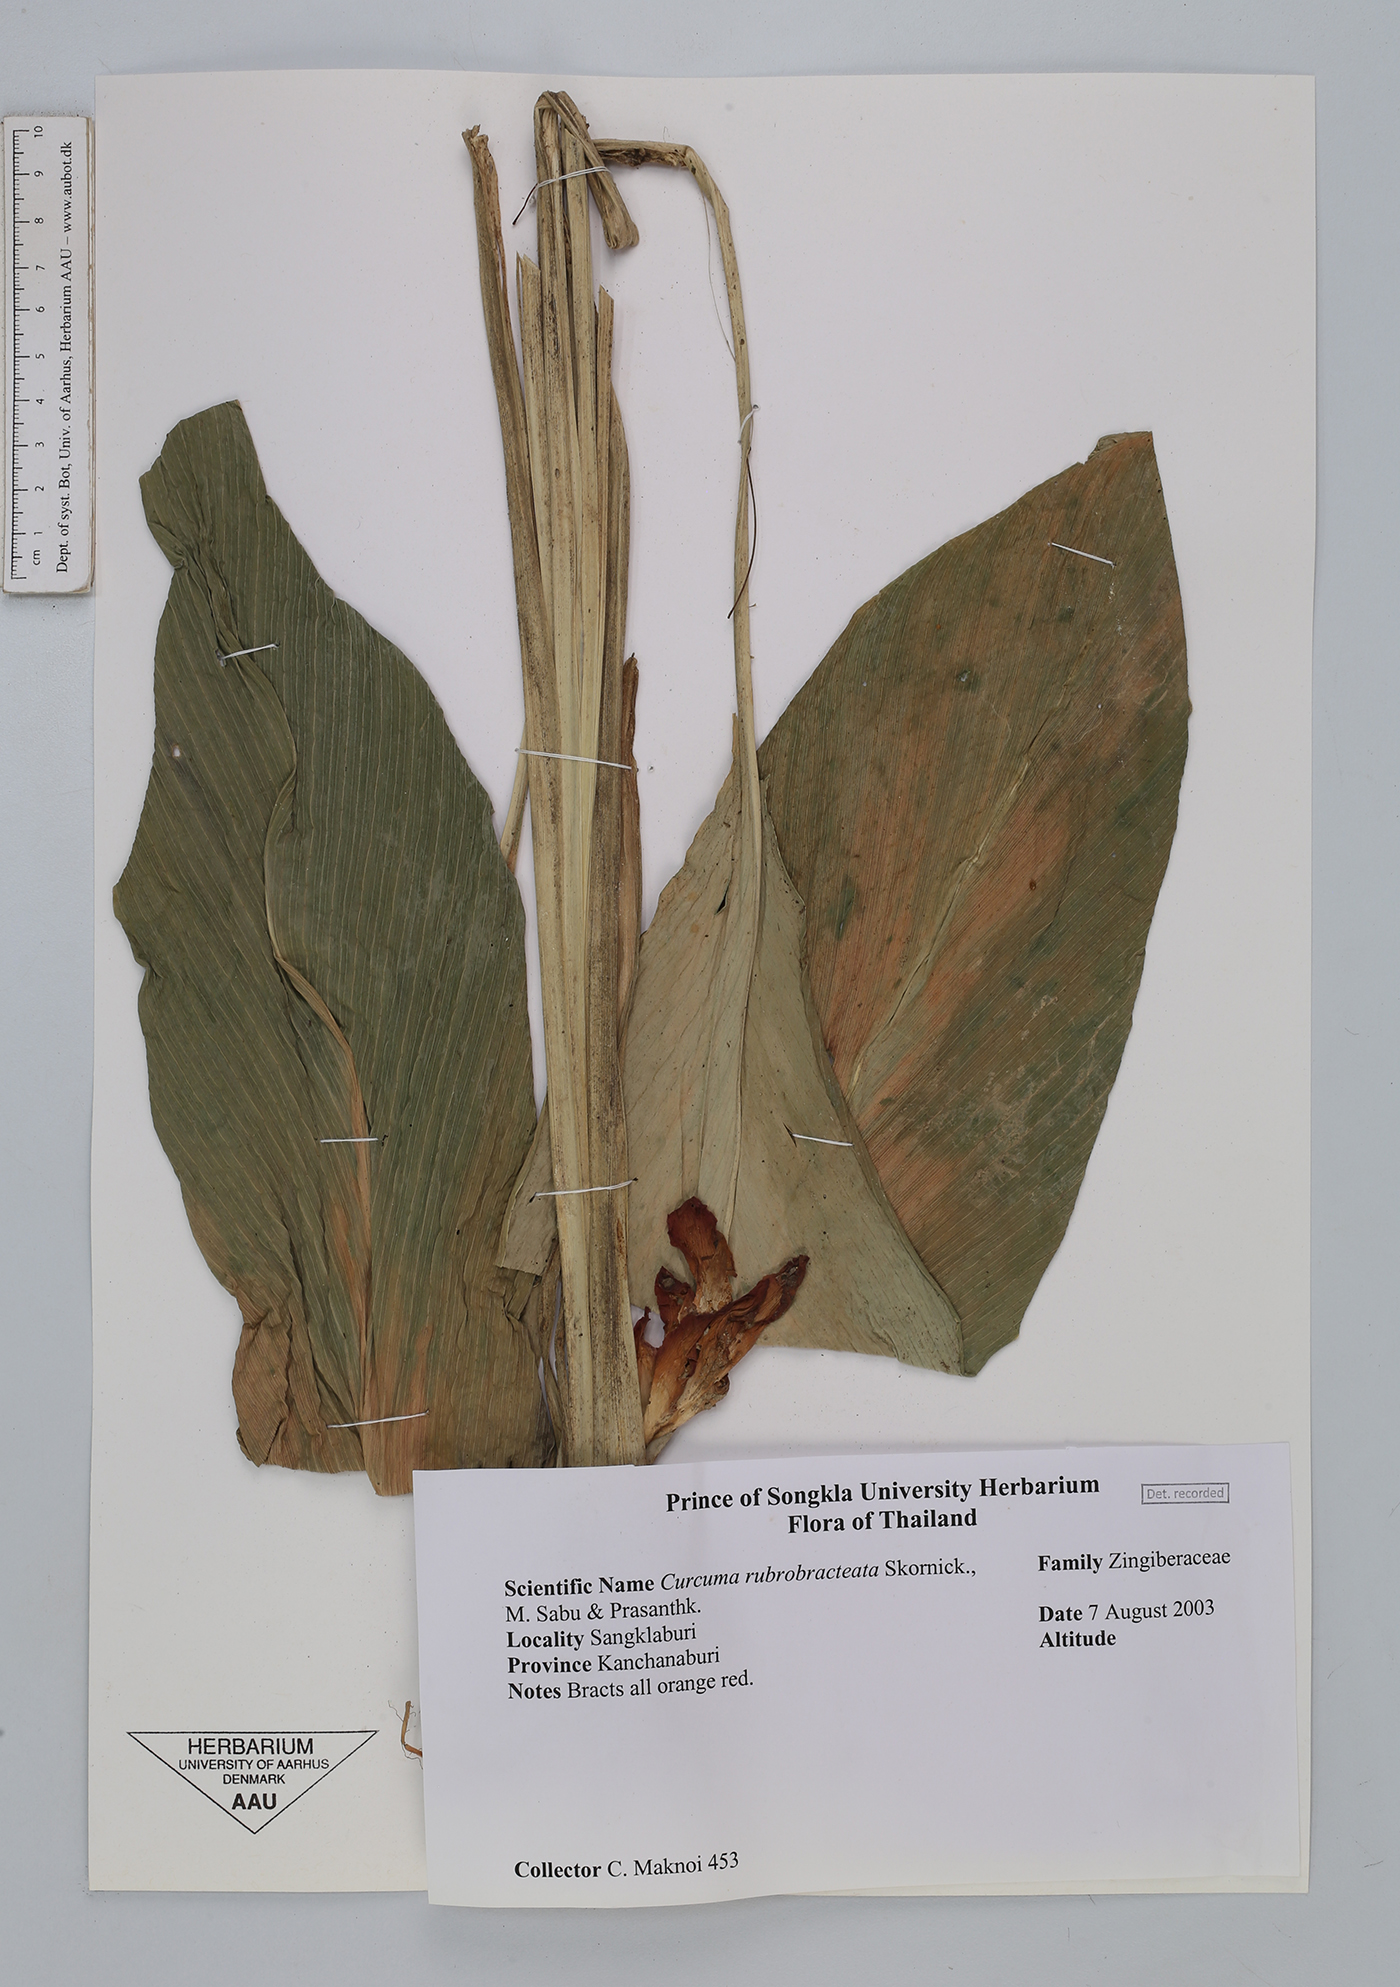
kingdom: Plantae
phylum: Tracheophyta
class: Liliopsida
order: Zingiberales
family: Zingiberaceae
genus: Curcuma
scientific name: Curcuma rubrobracteata
